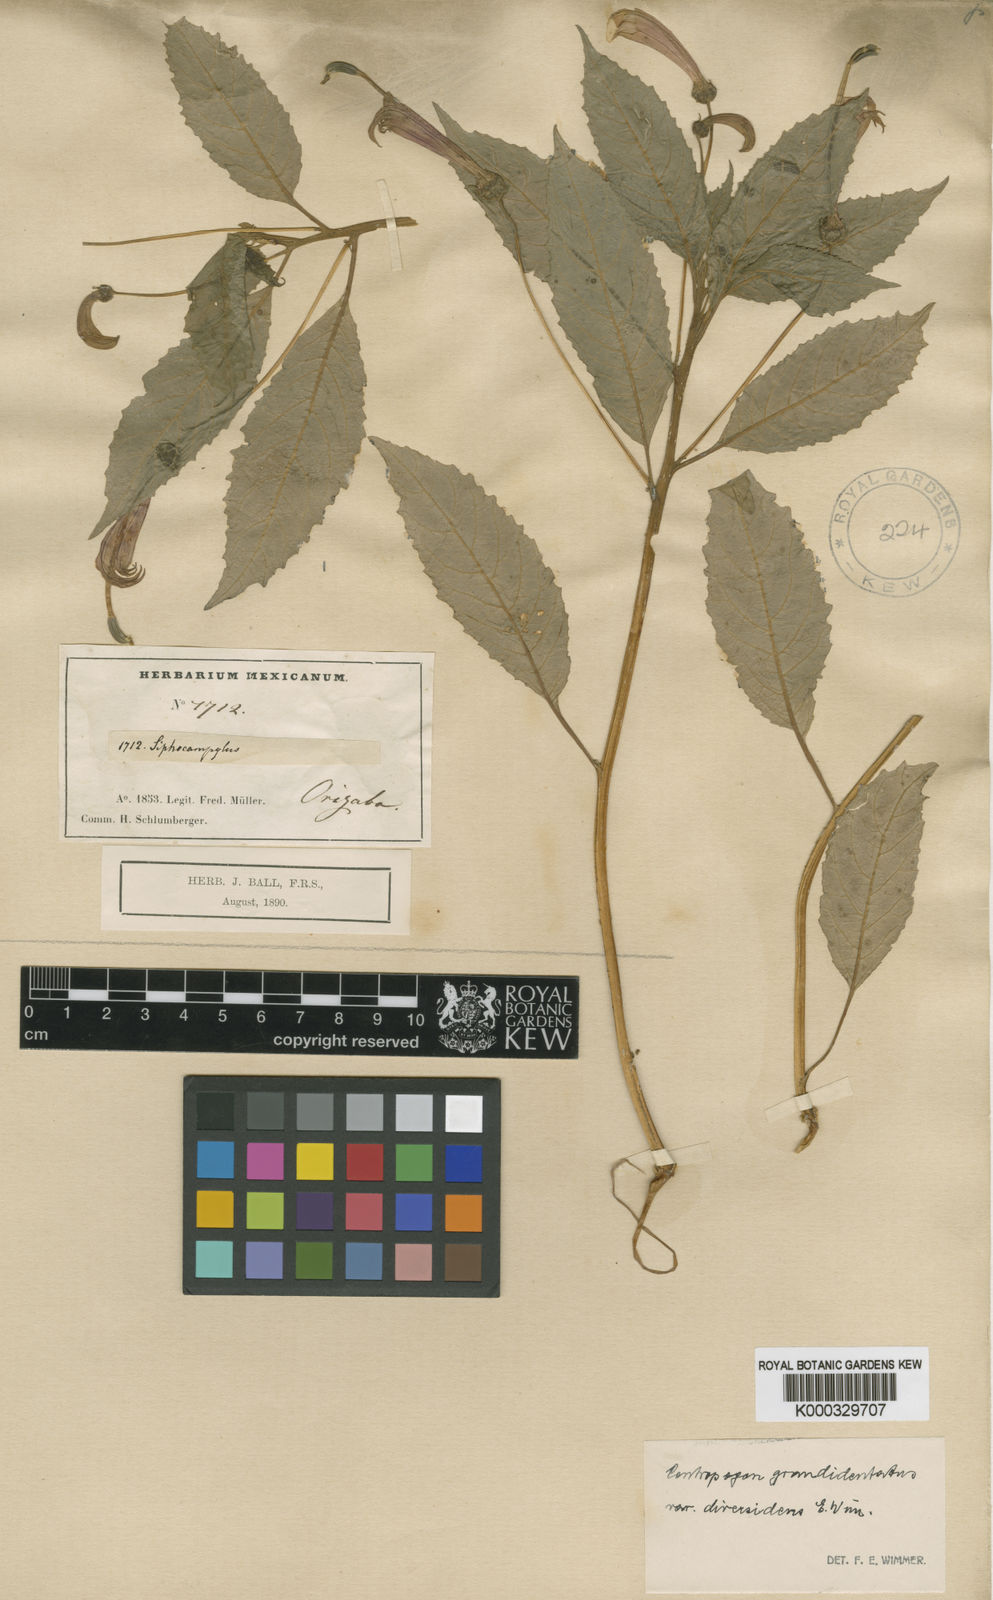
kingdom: Plantae
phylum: Tracheophyta
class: Magnoliopsida
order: Asterales
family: Campanulaceae
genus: Centropogon
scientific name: Centropogon grandidentatus
